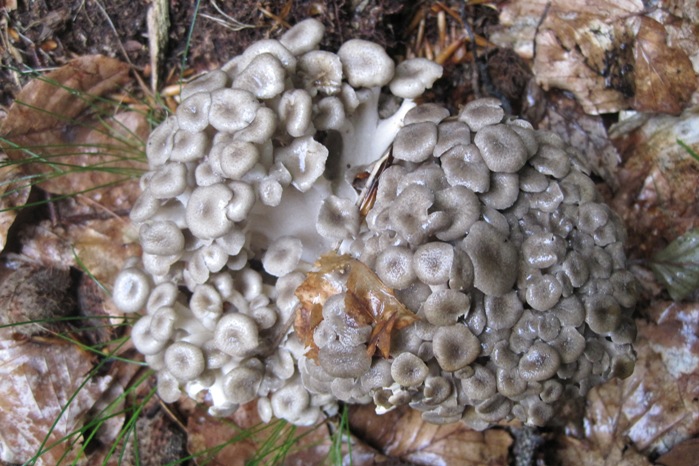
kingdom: Fungi
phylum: Basidiomycota
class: Agaricomycetes
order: Polyporales
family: Polyporaceae
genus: Polyporus
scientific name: Polyporus umbellatus
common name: skærmformet stilkporesvamp
